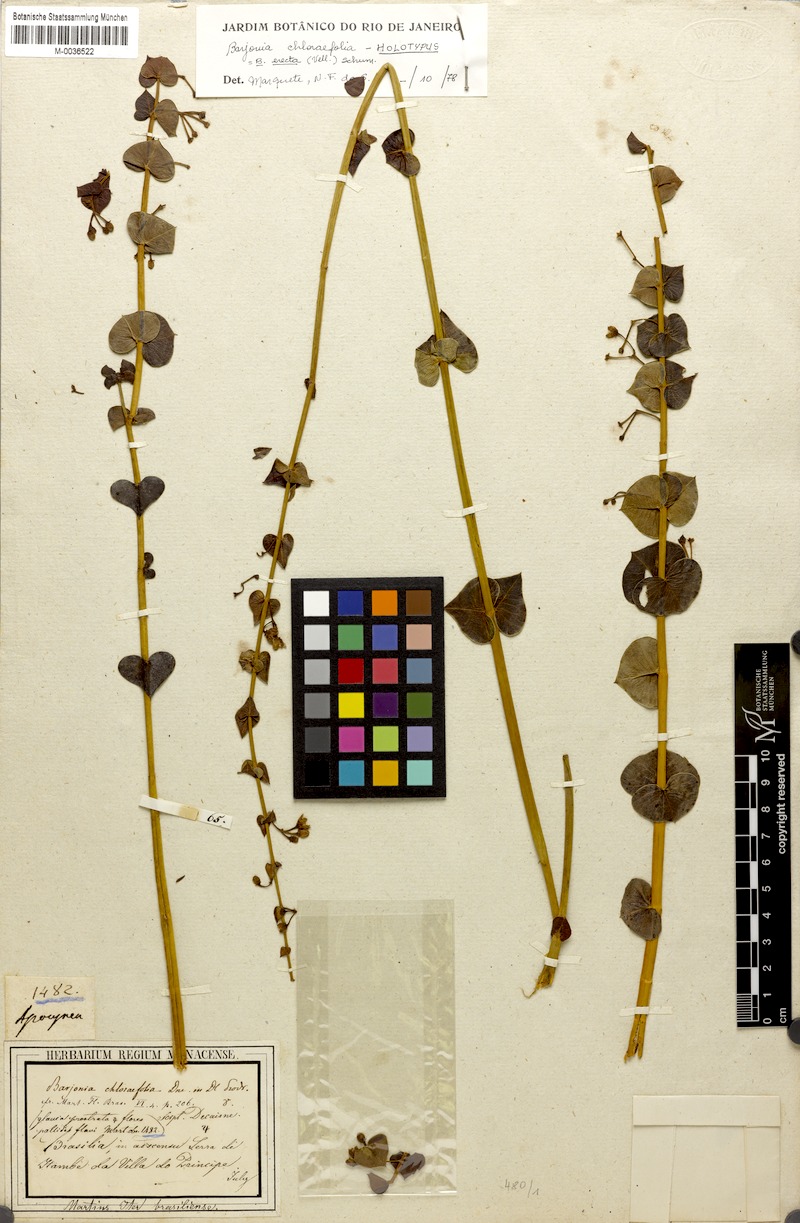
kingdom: Plantae
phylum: Tracheophyta
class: Magnoliopsida
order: Gentianales
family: Apocynaceae
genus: Barjonia
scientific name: Barjonia erecta
